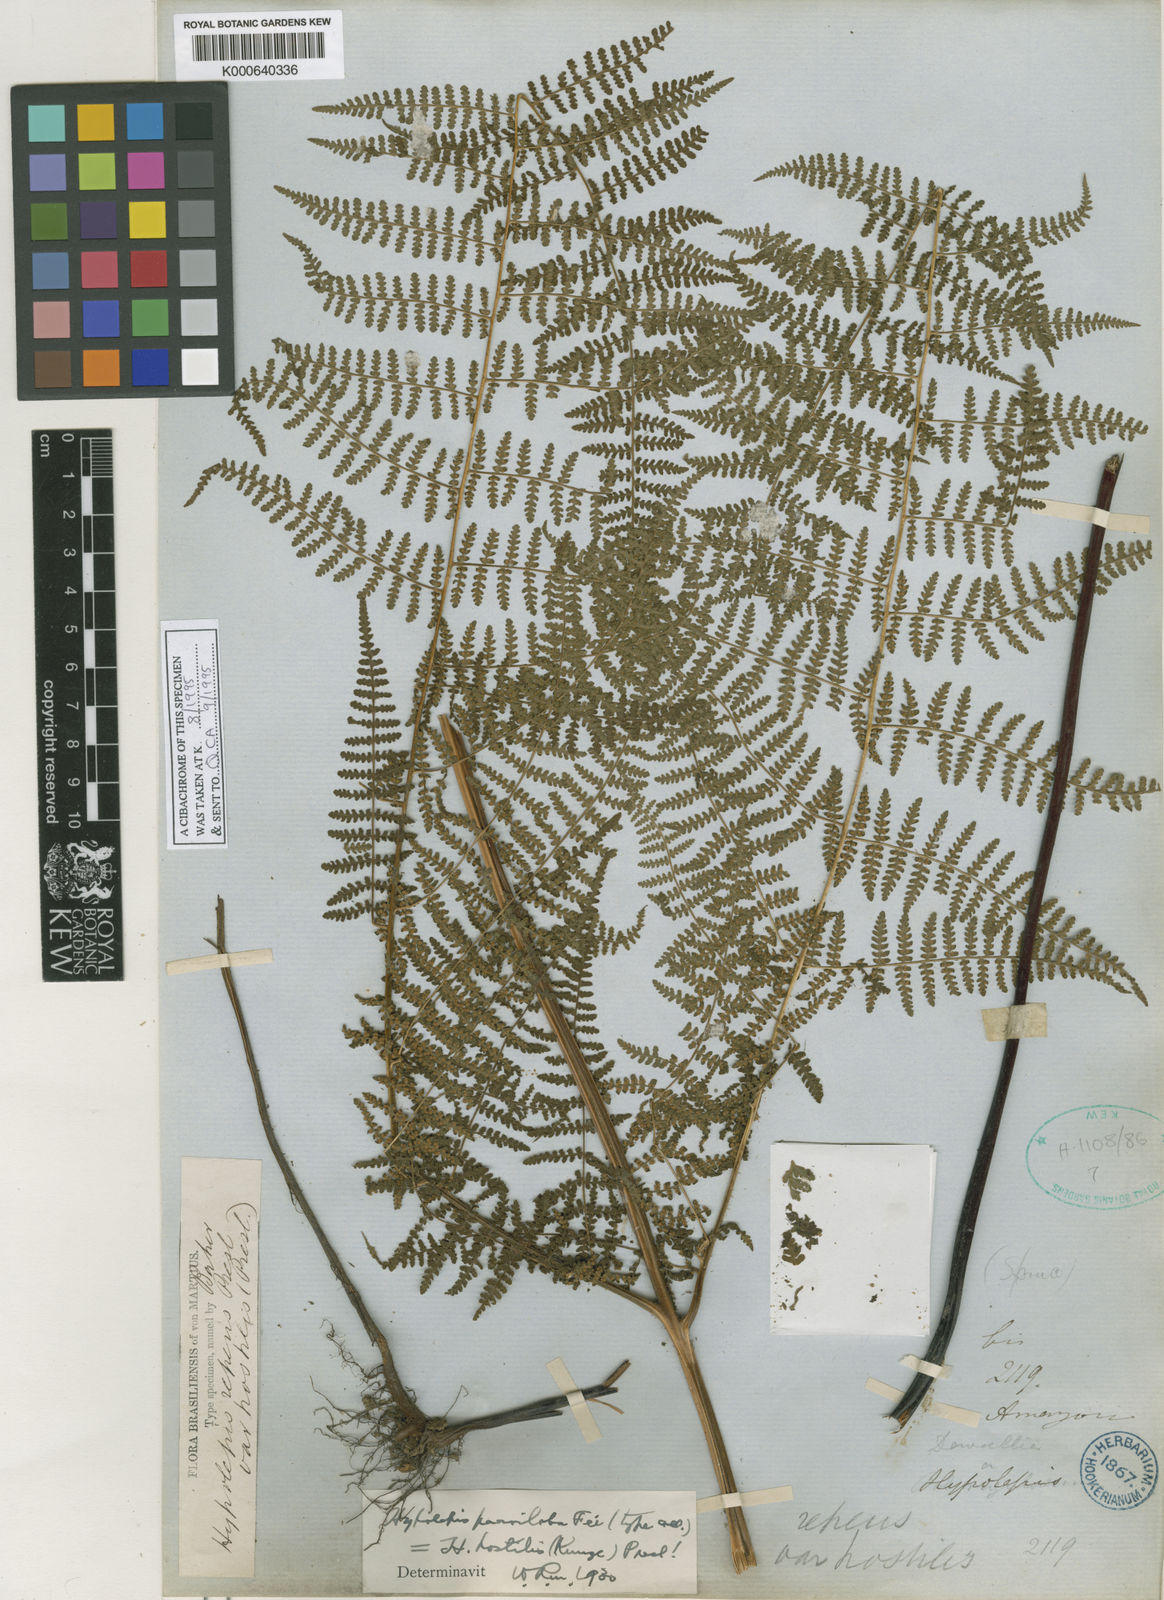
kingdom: Plantae
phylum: Tracheophyta
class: Polypodiopsida
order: Polypodiales
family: Dennstaedtiaceae
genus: Hypolepis
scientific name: Hypolepis hostilis
